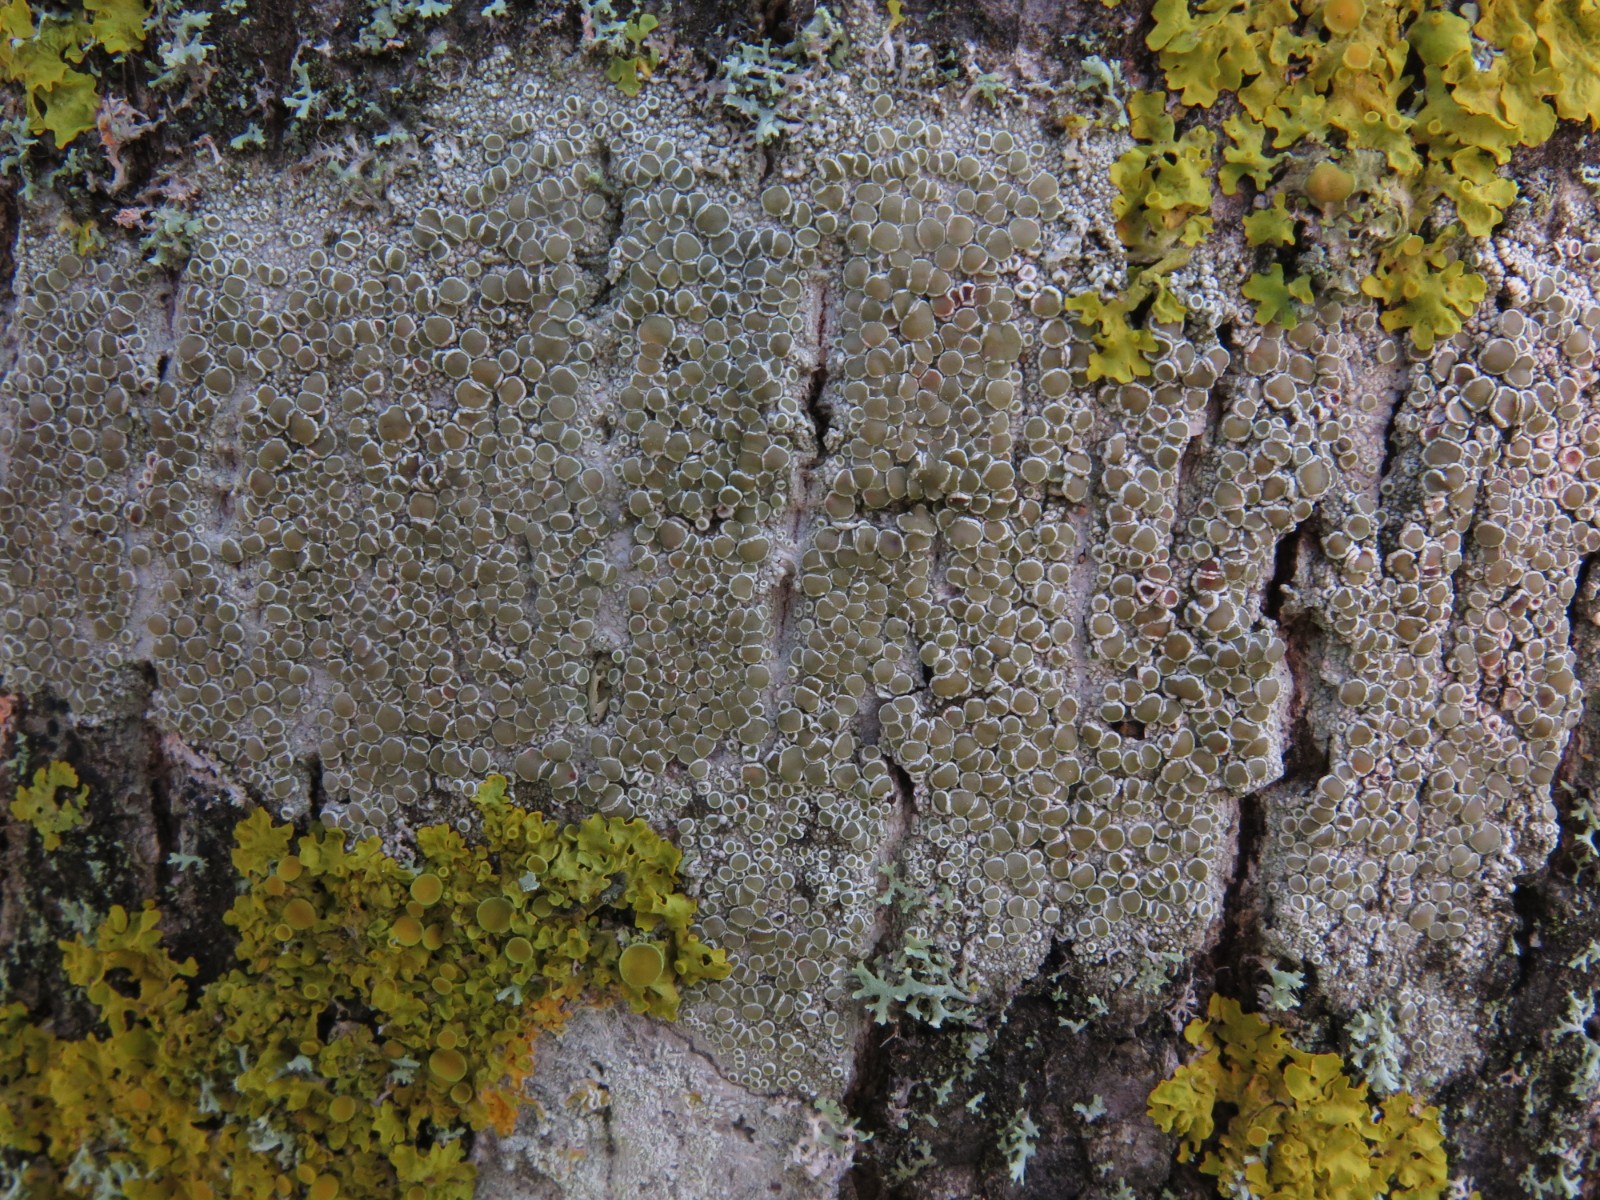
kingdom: Fungi
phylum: Ascomycota
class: Lecanoromycetes
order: Lecanorales
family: Lecanoraceae
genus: Lecanora
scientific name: Lecanora chlarotera
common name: brun kantskivelav
